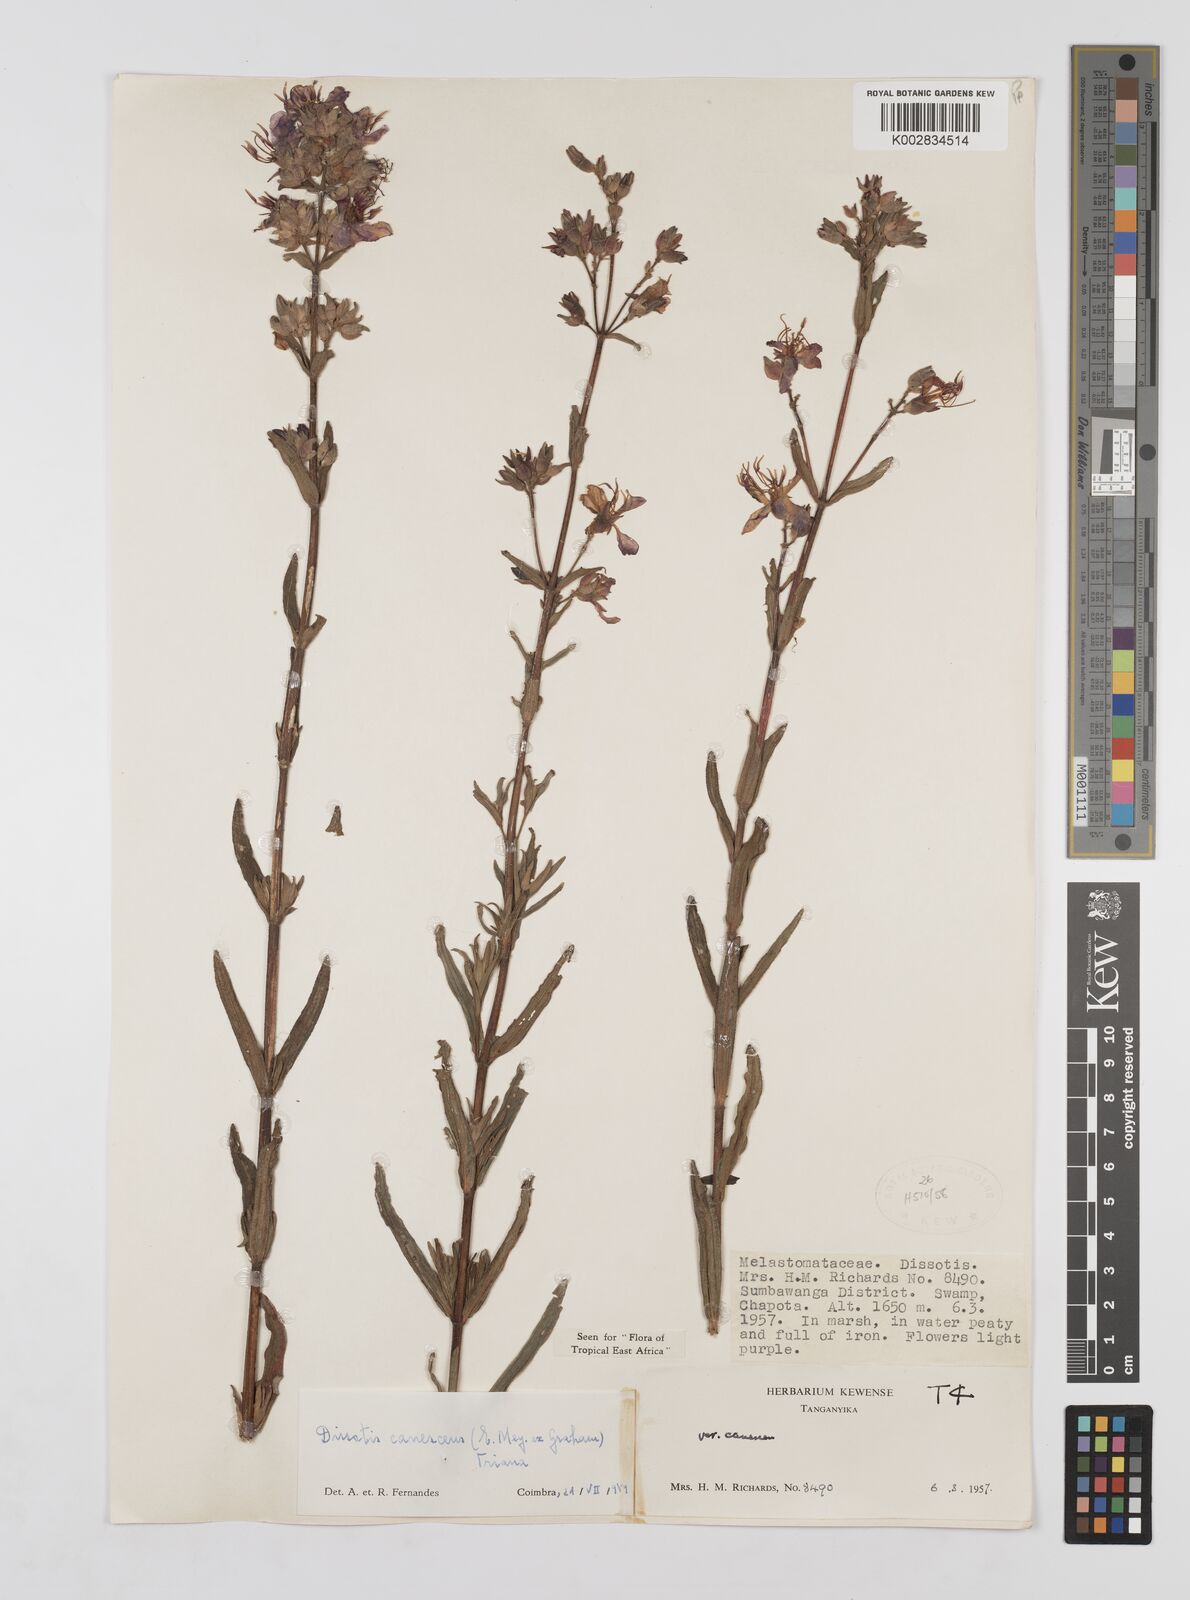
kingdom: Plantae
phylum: Tracheophyta
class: Magnoliopsida
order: Myrtales
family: Melastomataceae
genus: Argyrella
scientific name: Argyrella canescens
